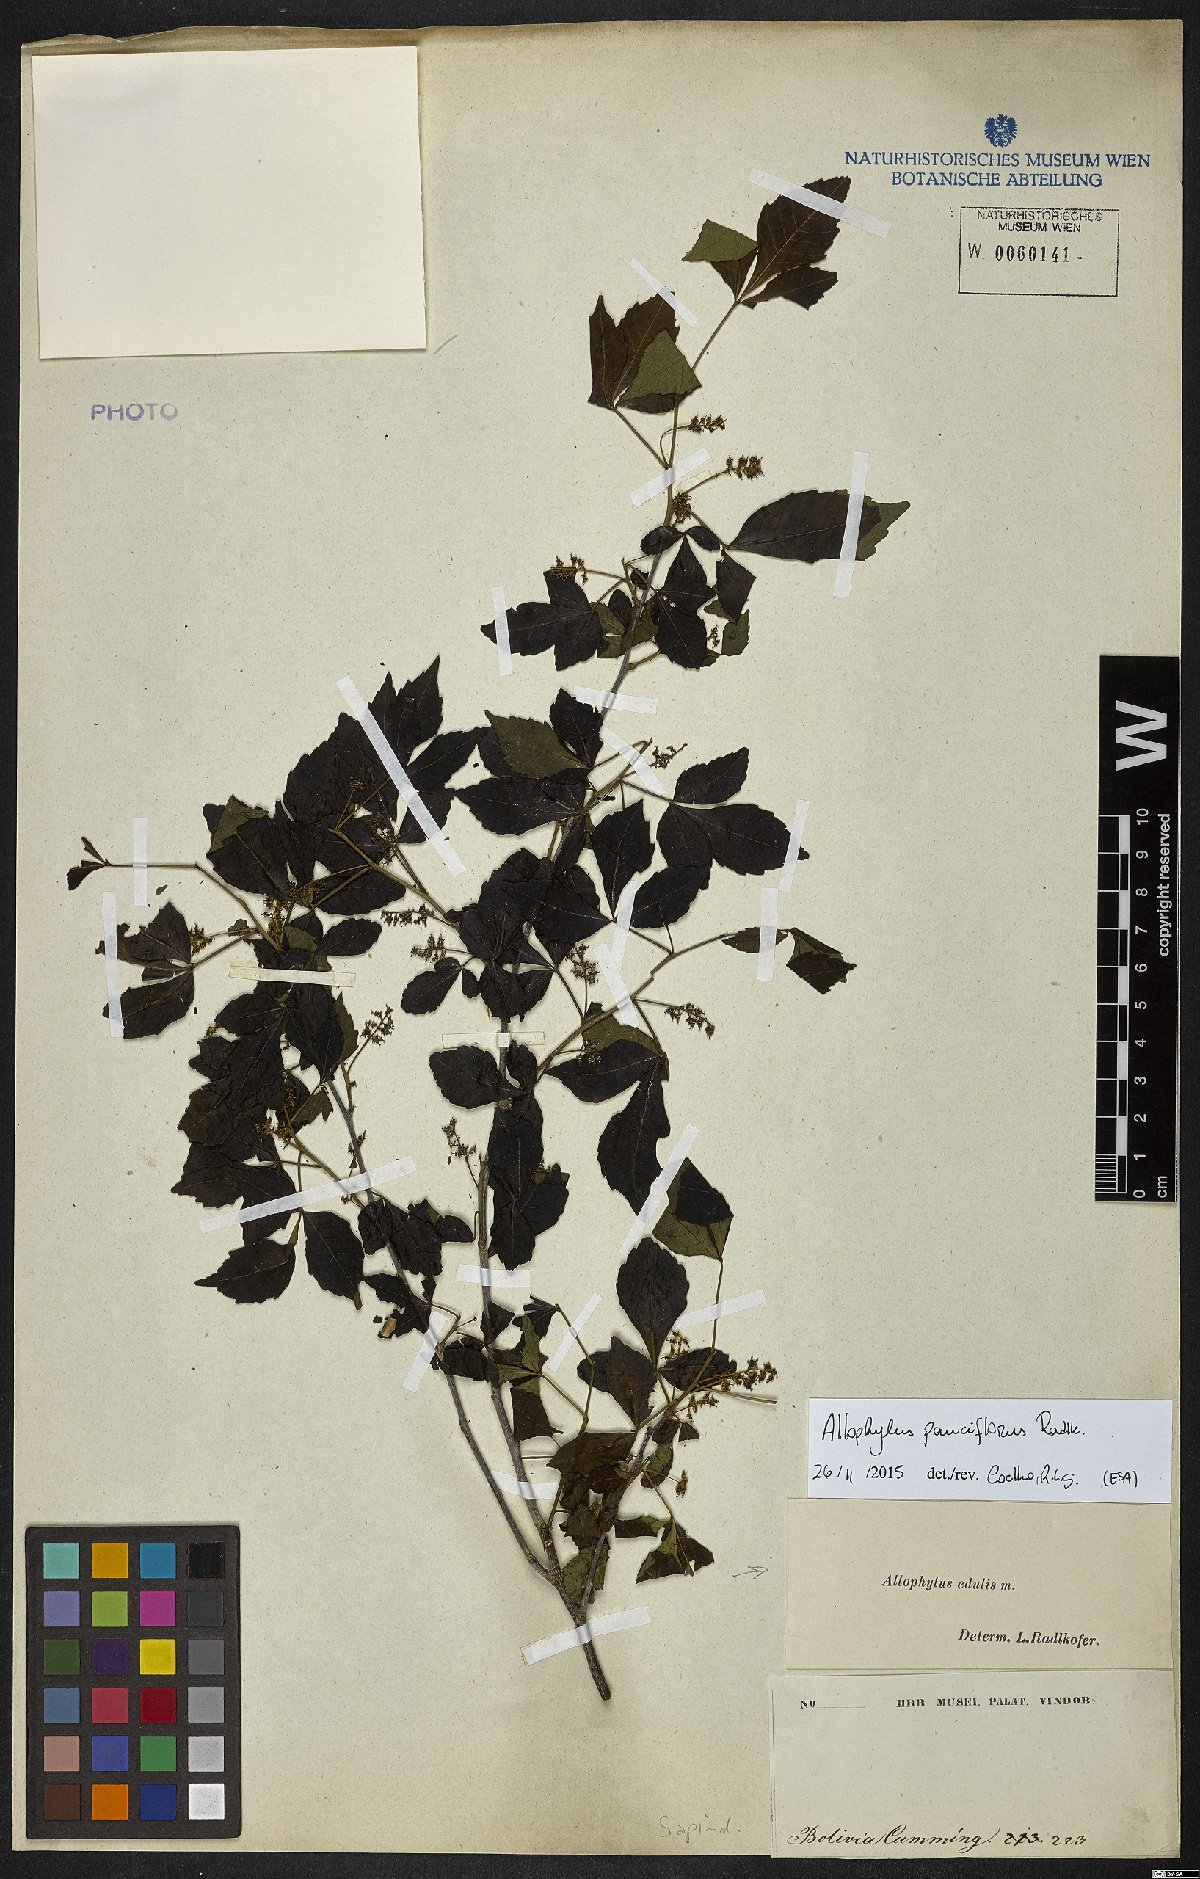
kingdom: Plantae
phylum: Tracheophyta
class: Magnoliopsida
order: Sapindales
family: Sapindaceae
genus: Allophylus
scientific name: Allophylus
